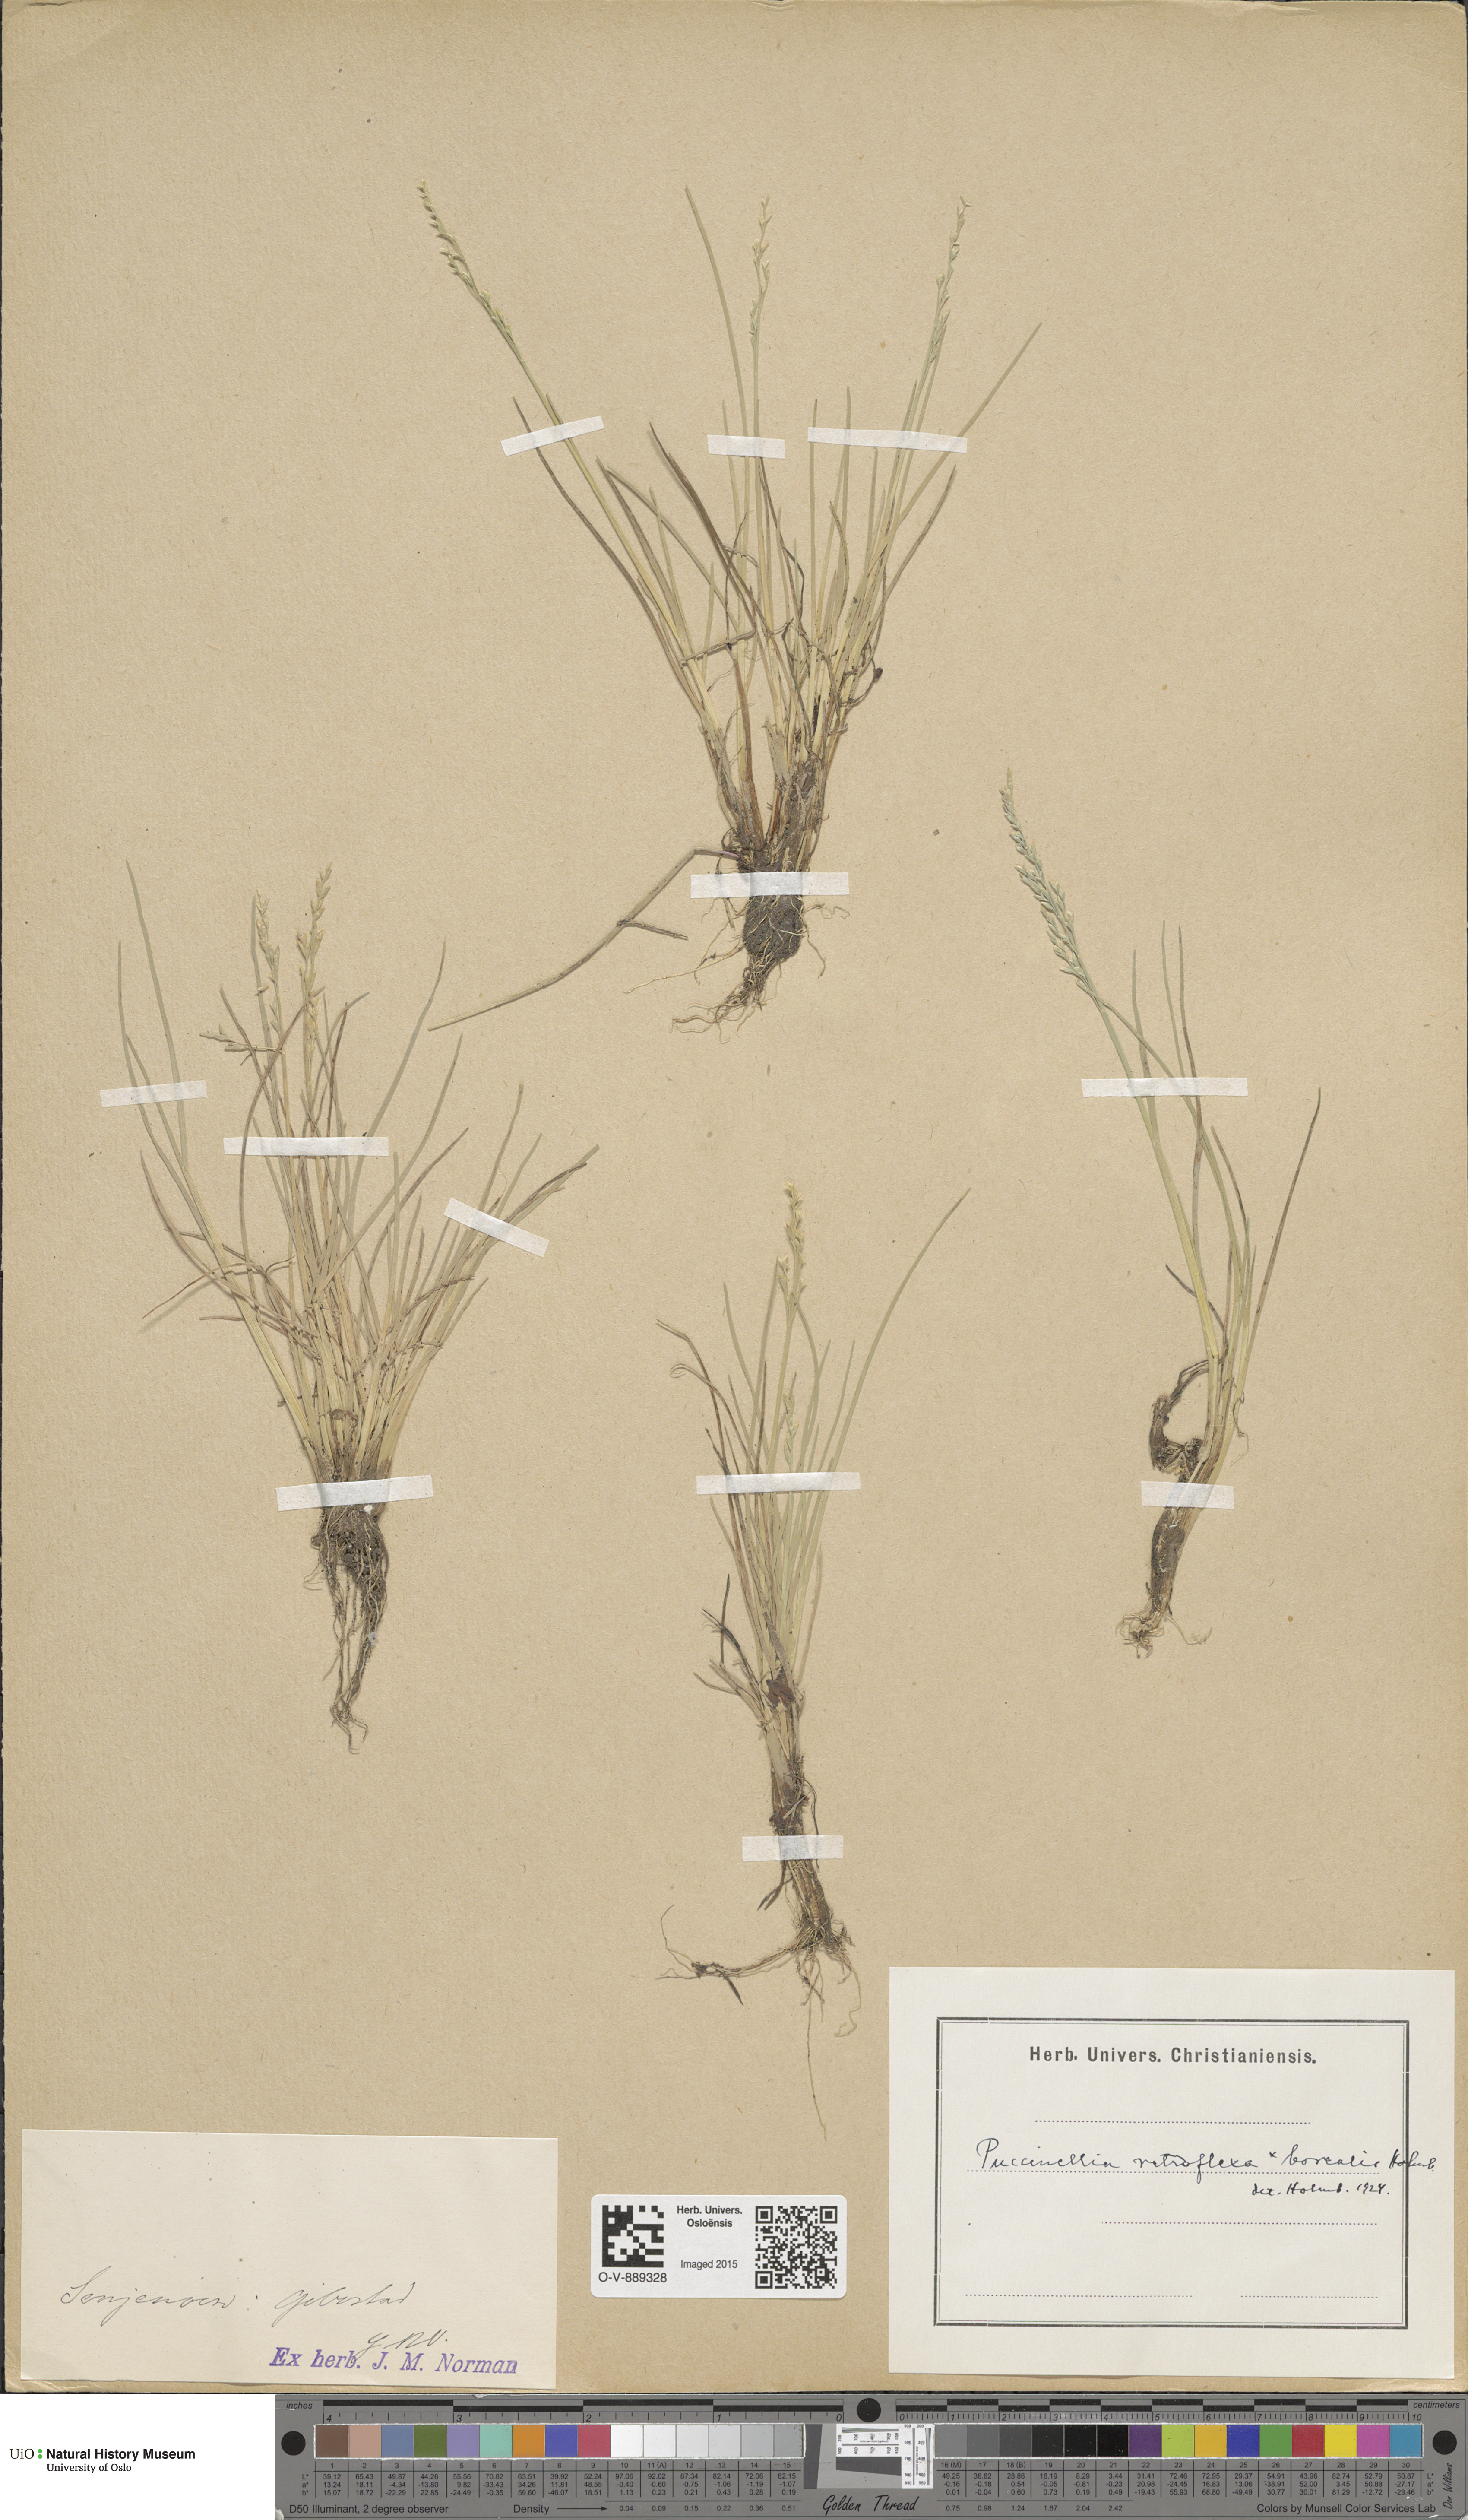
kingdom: Plantae
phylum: Tracheophyta
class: Liliopsida
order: Poales
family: Poaceae
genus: Puccinellia
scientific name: Puccinellia distans
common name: Weeping alkaligrass
